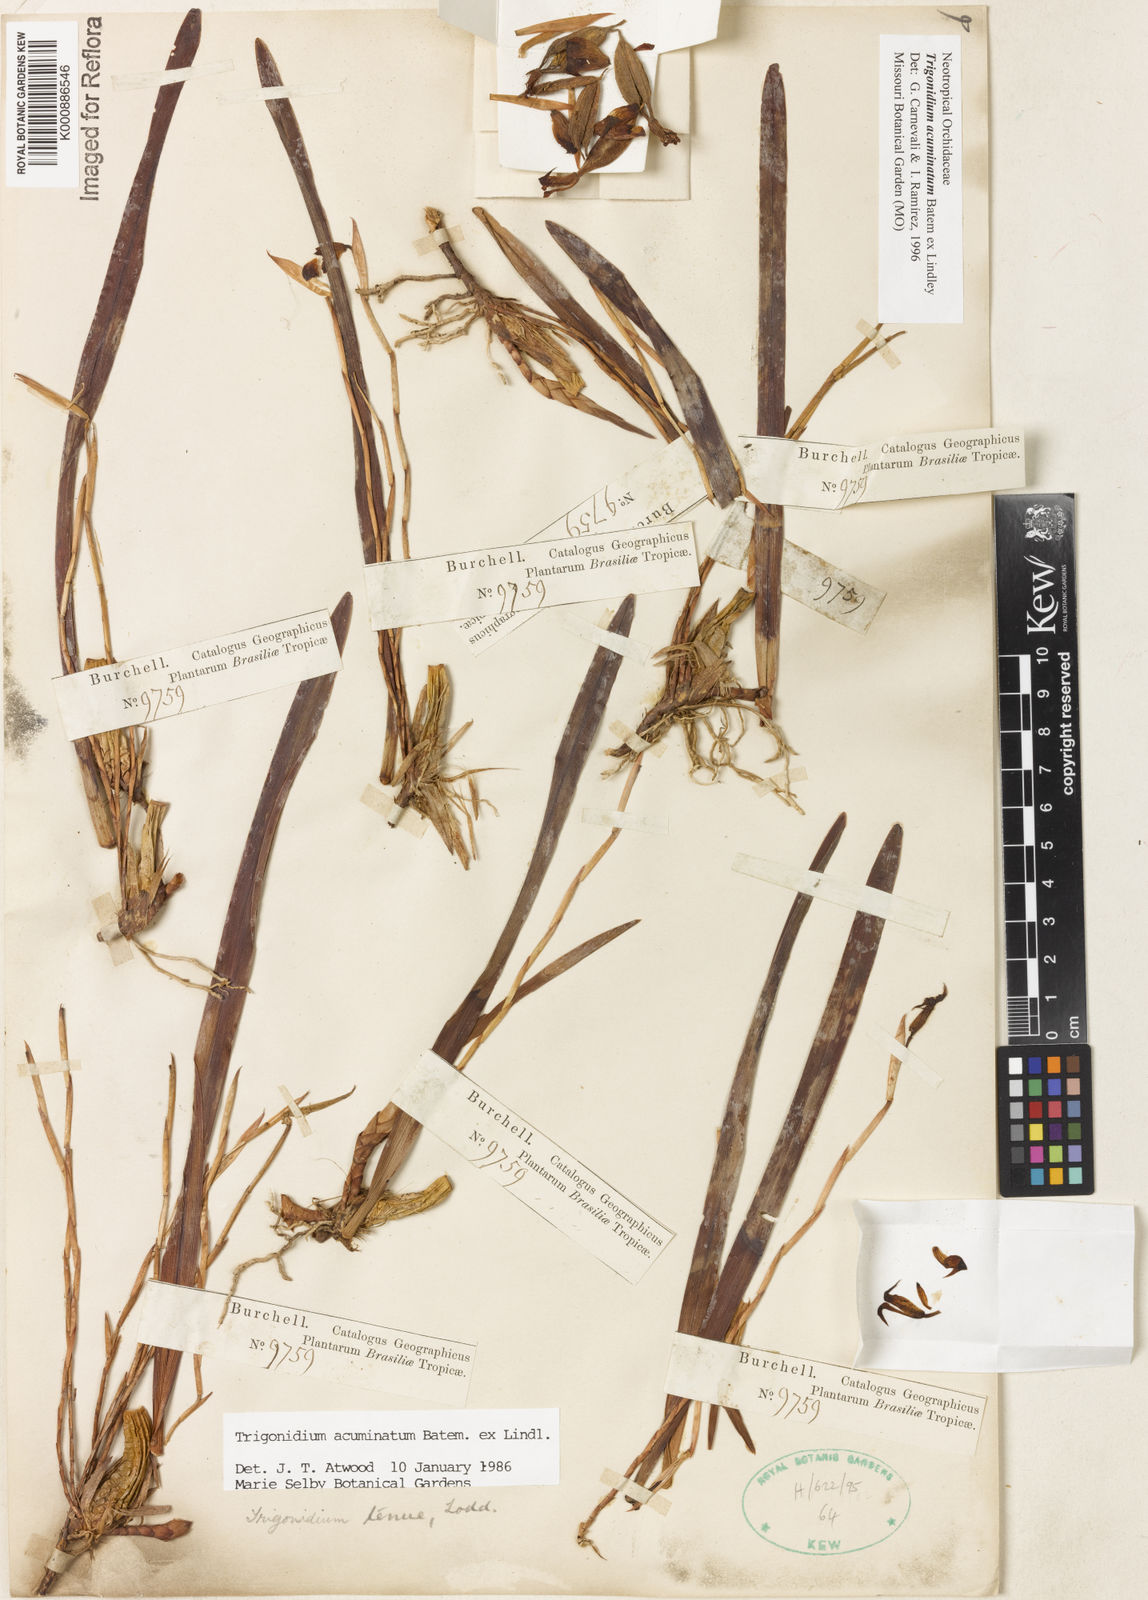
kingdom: Animalia
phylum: Arthropoda
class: Insecta
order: Orthoptera
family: Trigonidiidae
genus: Trigonidium
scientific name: Trigonidium
